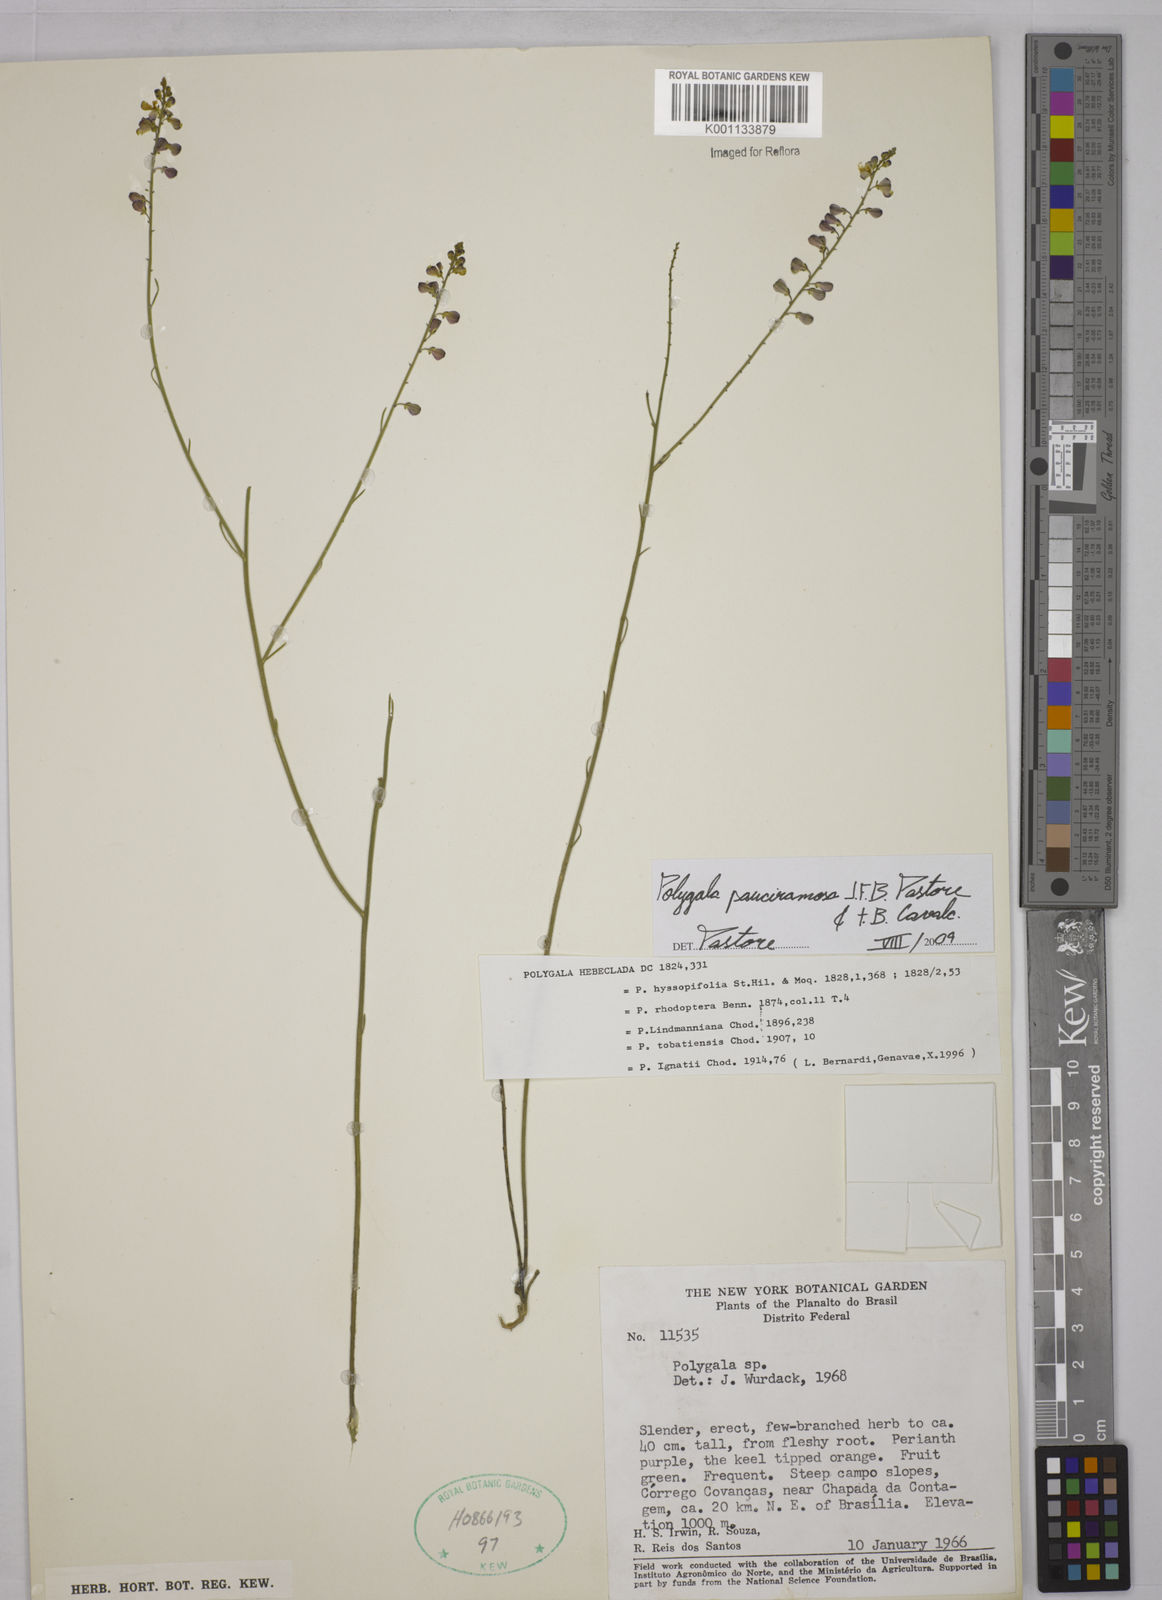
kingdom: Plantae
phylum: Tracheophyta
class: Magnoliopsida
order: Fabales
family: Polygalaceae
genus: Asemeia
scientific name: Asemeia lindmaniana
